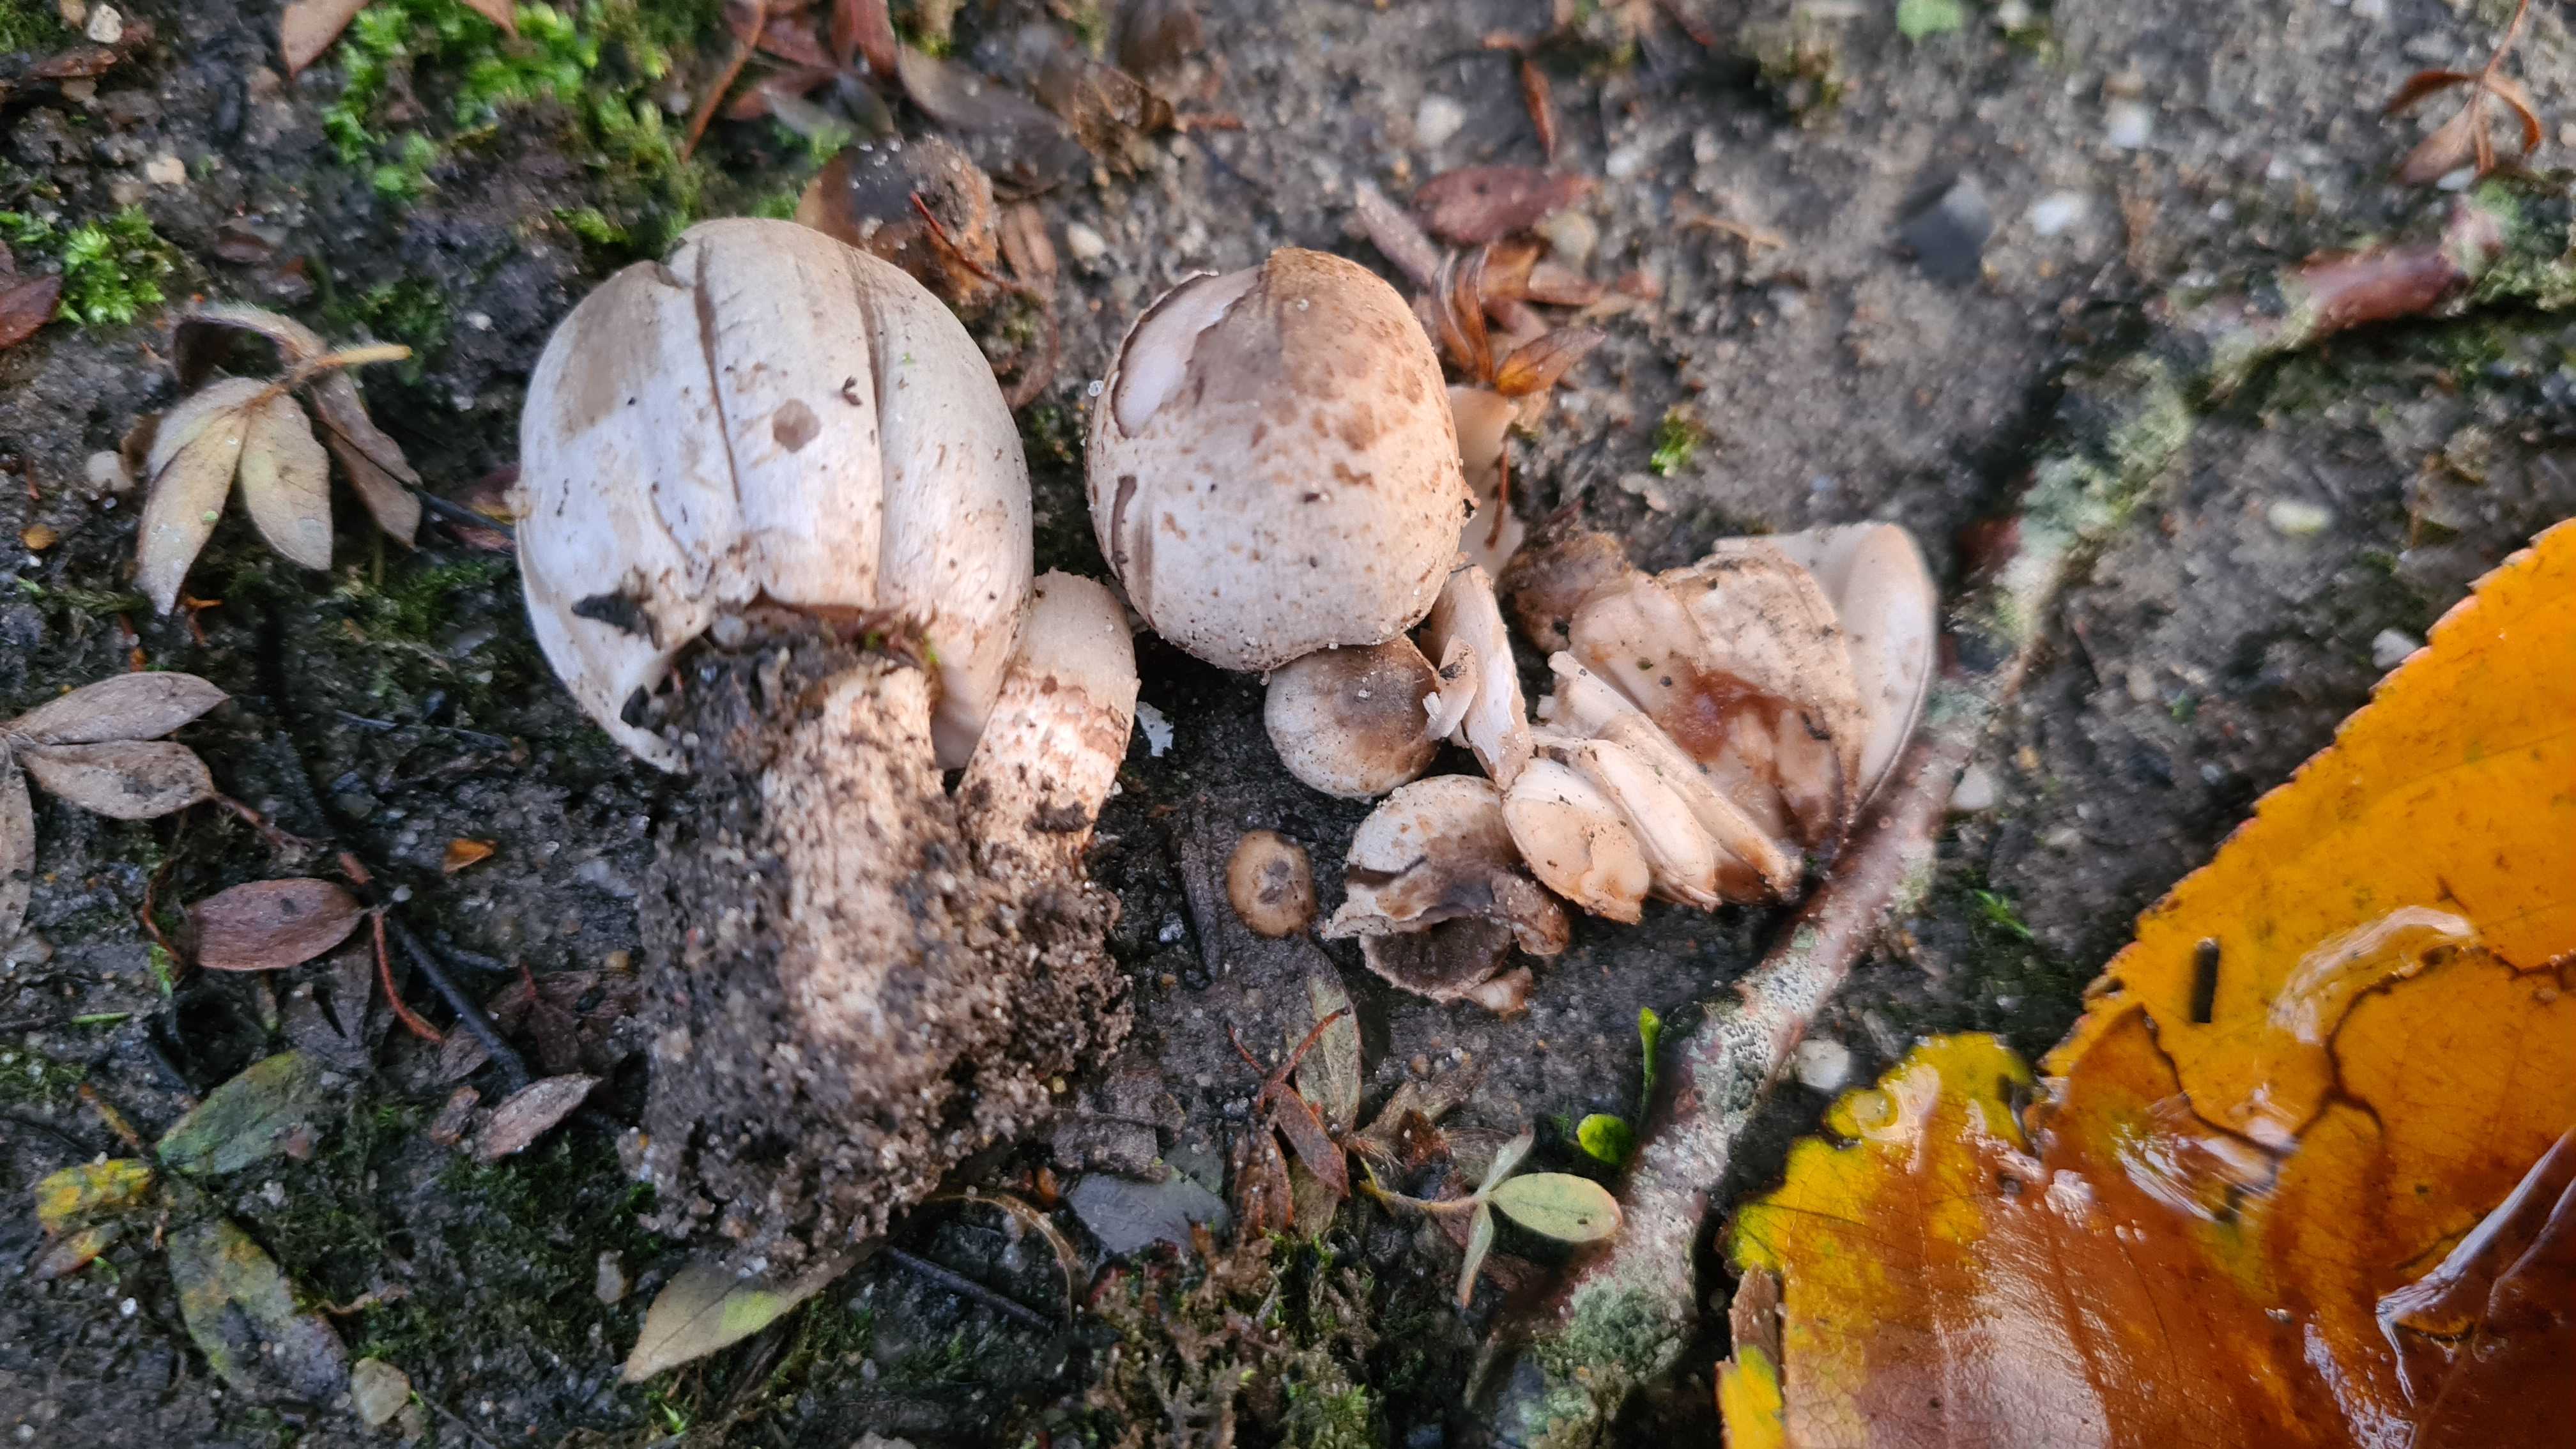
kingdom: Fungi
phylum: Basidiomycota
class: Agaricomycetes
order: Agaricales
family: Psathyrellaceae
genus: Coprinopsis
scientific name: Coprinopsis romagnesiana
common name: brunskællet blækhat
